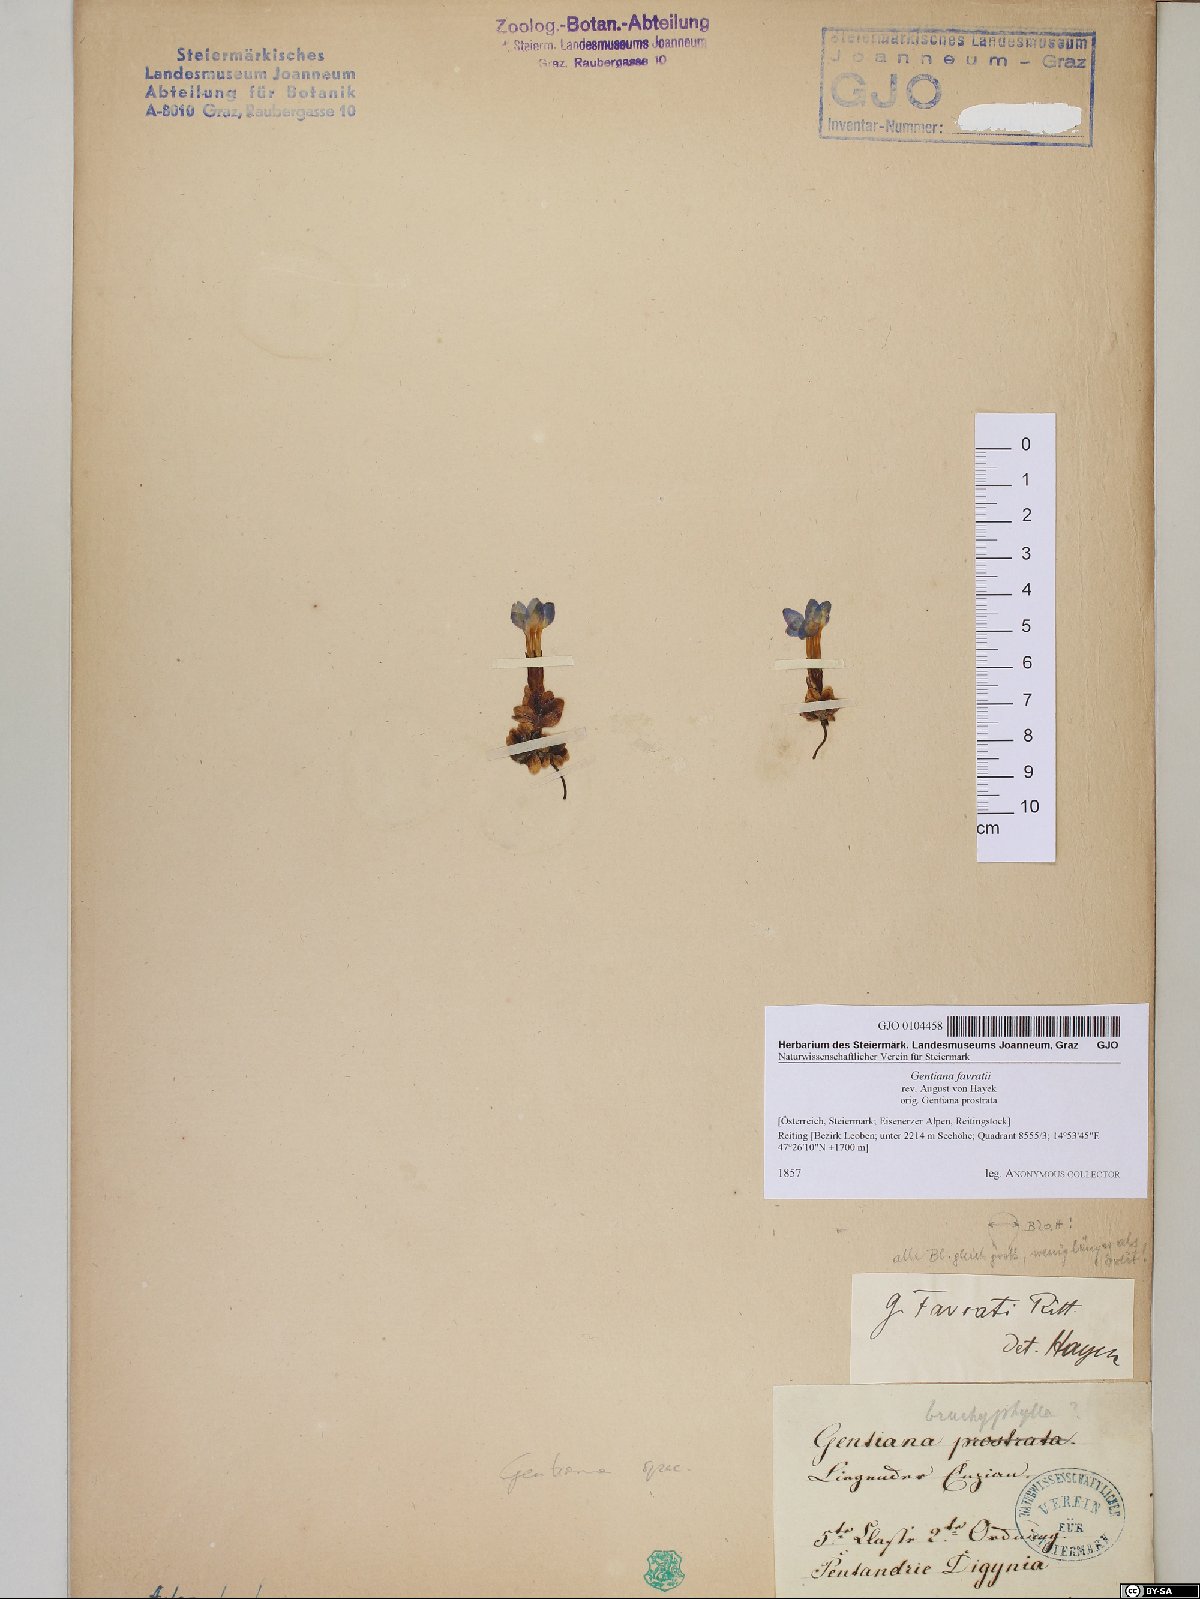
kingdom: Plantae
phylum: Tracheophyta
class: Magnoliopsida
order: Gentianales
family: Gentianaceae
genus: Gentiana
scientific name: Gentiana orbicularis
